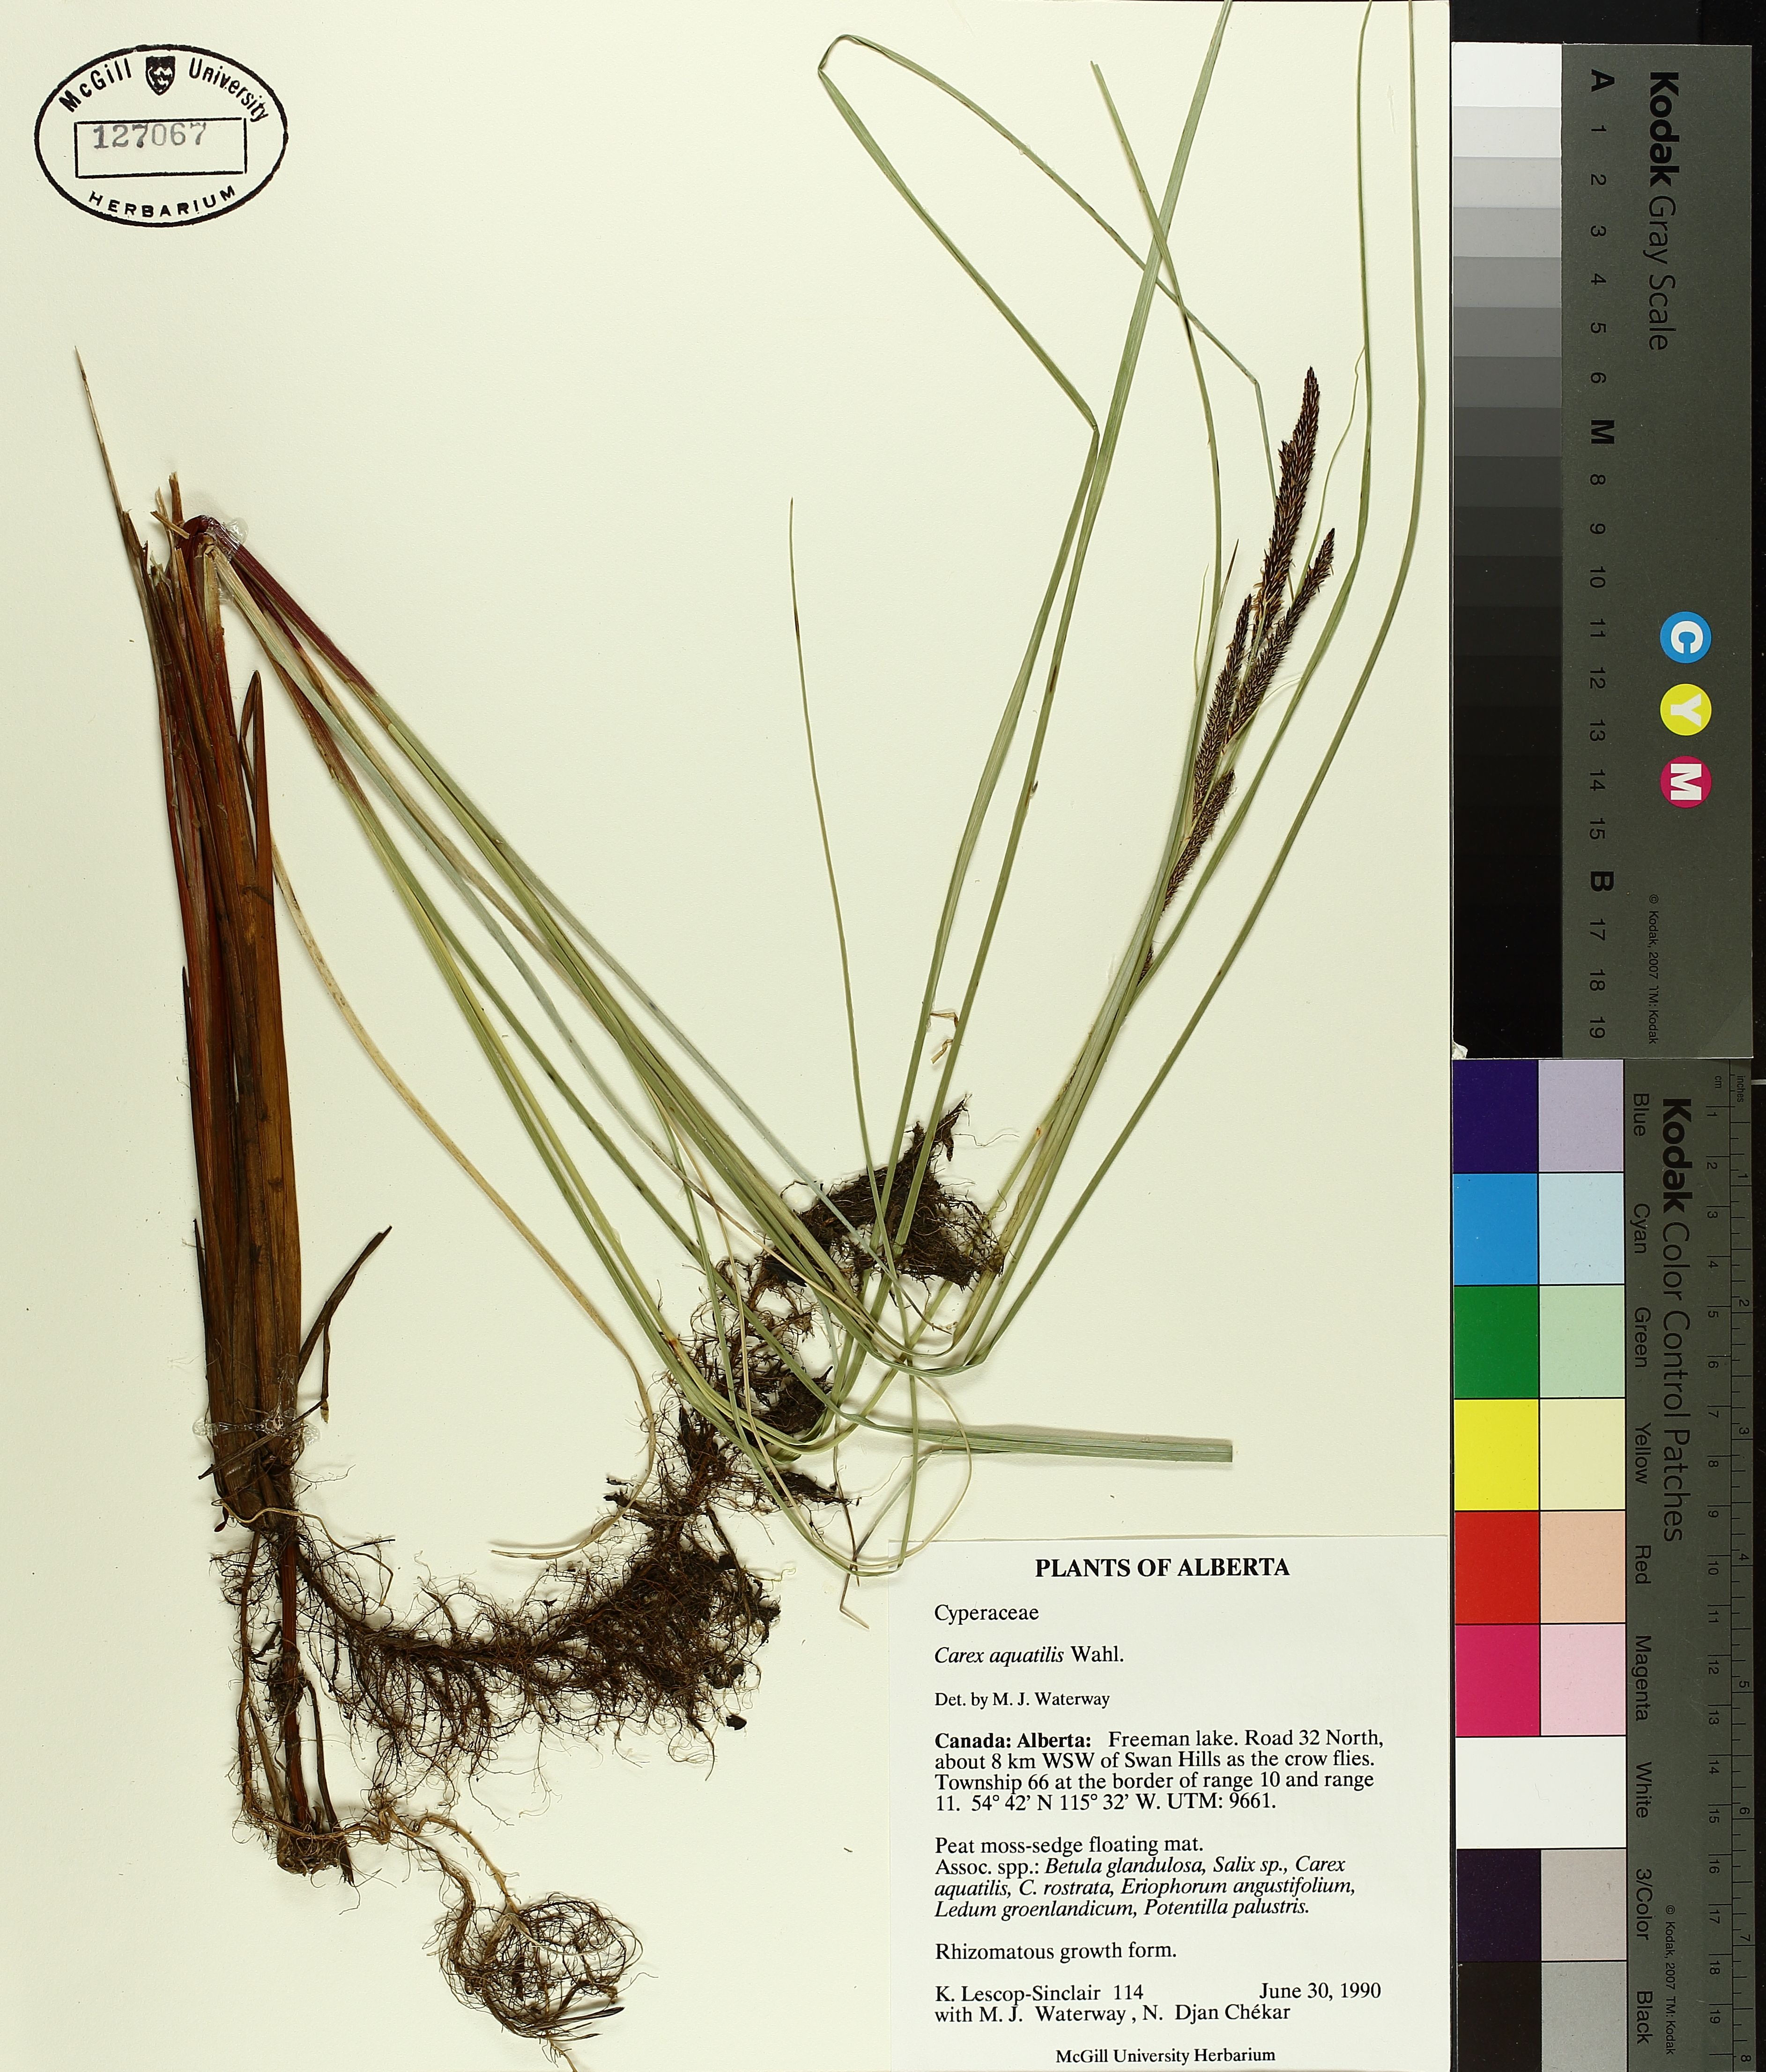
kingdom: Plantae
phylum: Tracheophyta
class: Liliopsida
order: Poales
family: Cyperaceae
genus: Carex
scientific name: Carex aquatilis
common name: Water sedge
